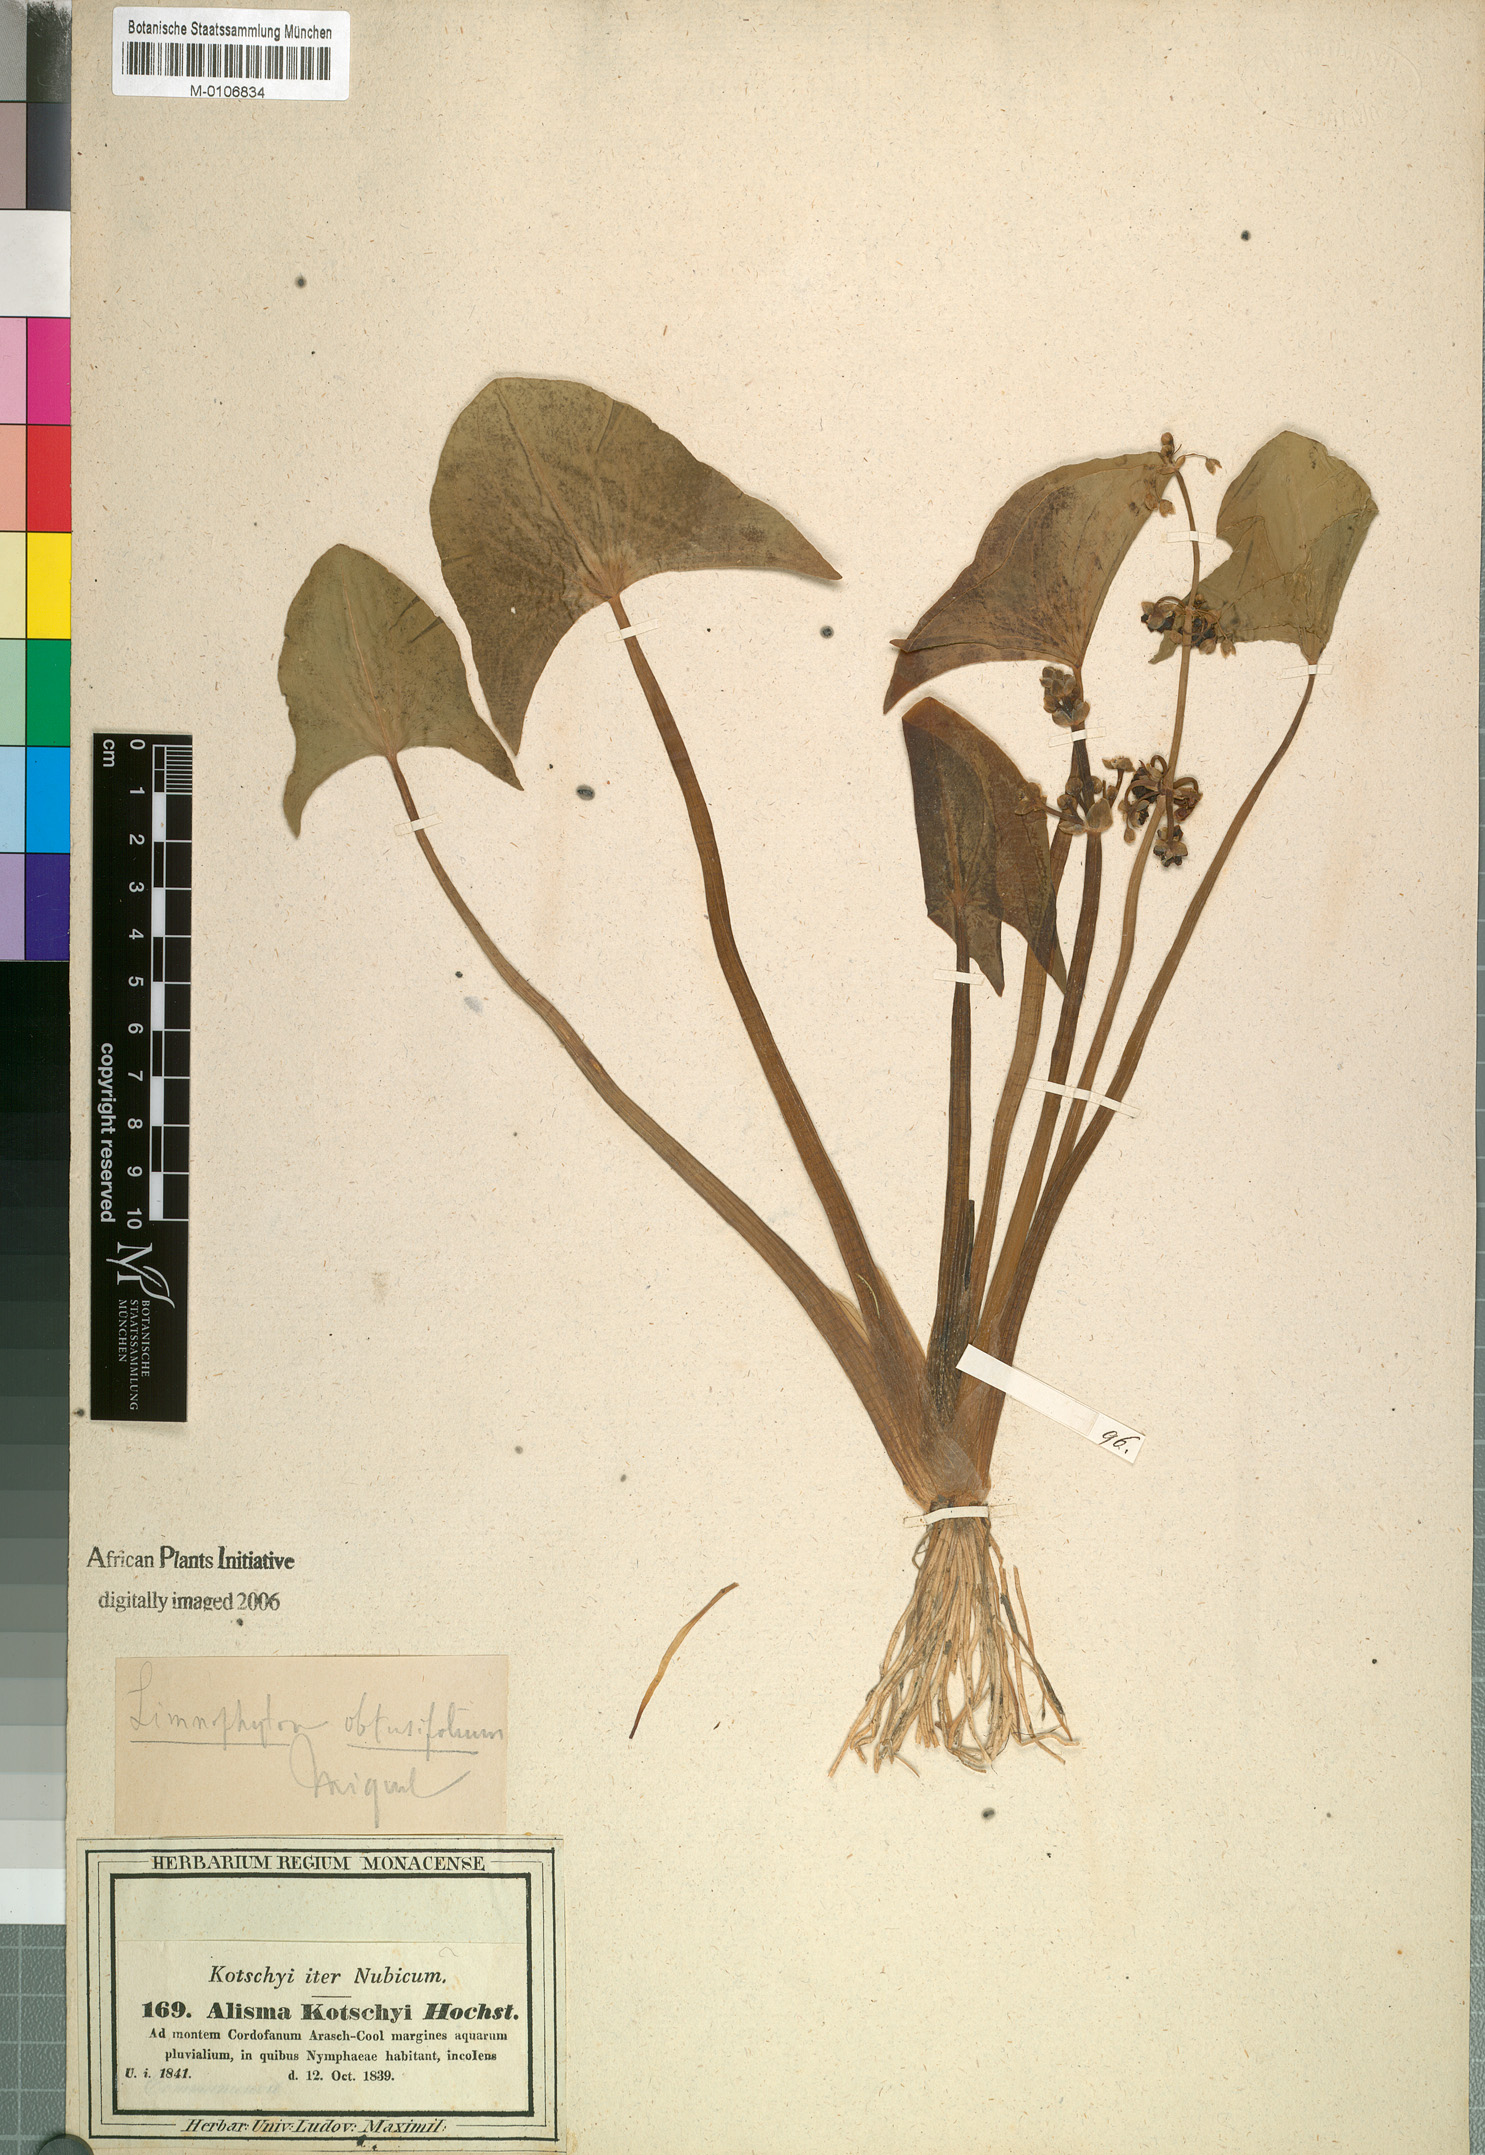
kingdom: Plantae
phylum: Tracheophyta
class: Liliopsida
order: Alismatales
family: Alismataceae
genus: Limnophyton
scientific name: Limnophyton obtusifolium
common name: Arrow head
